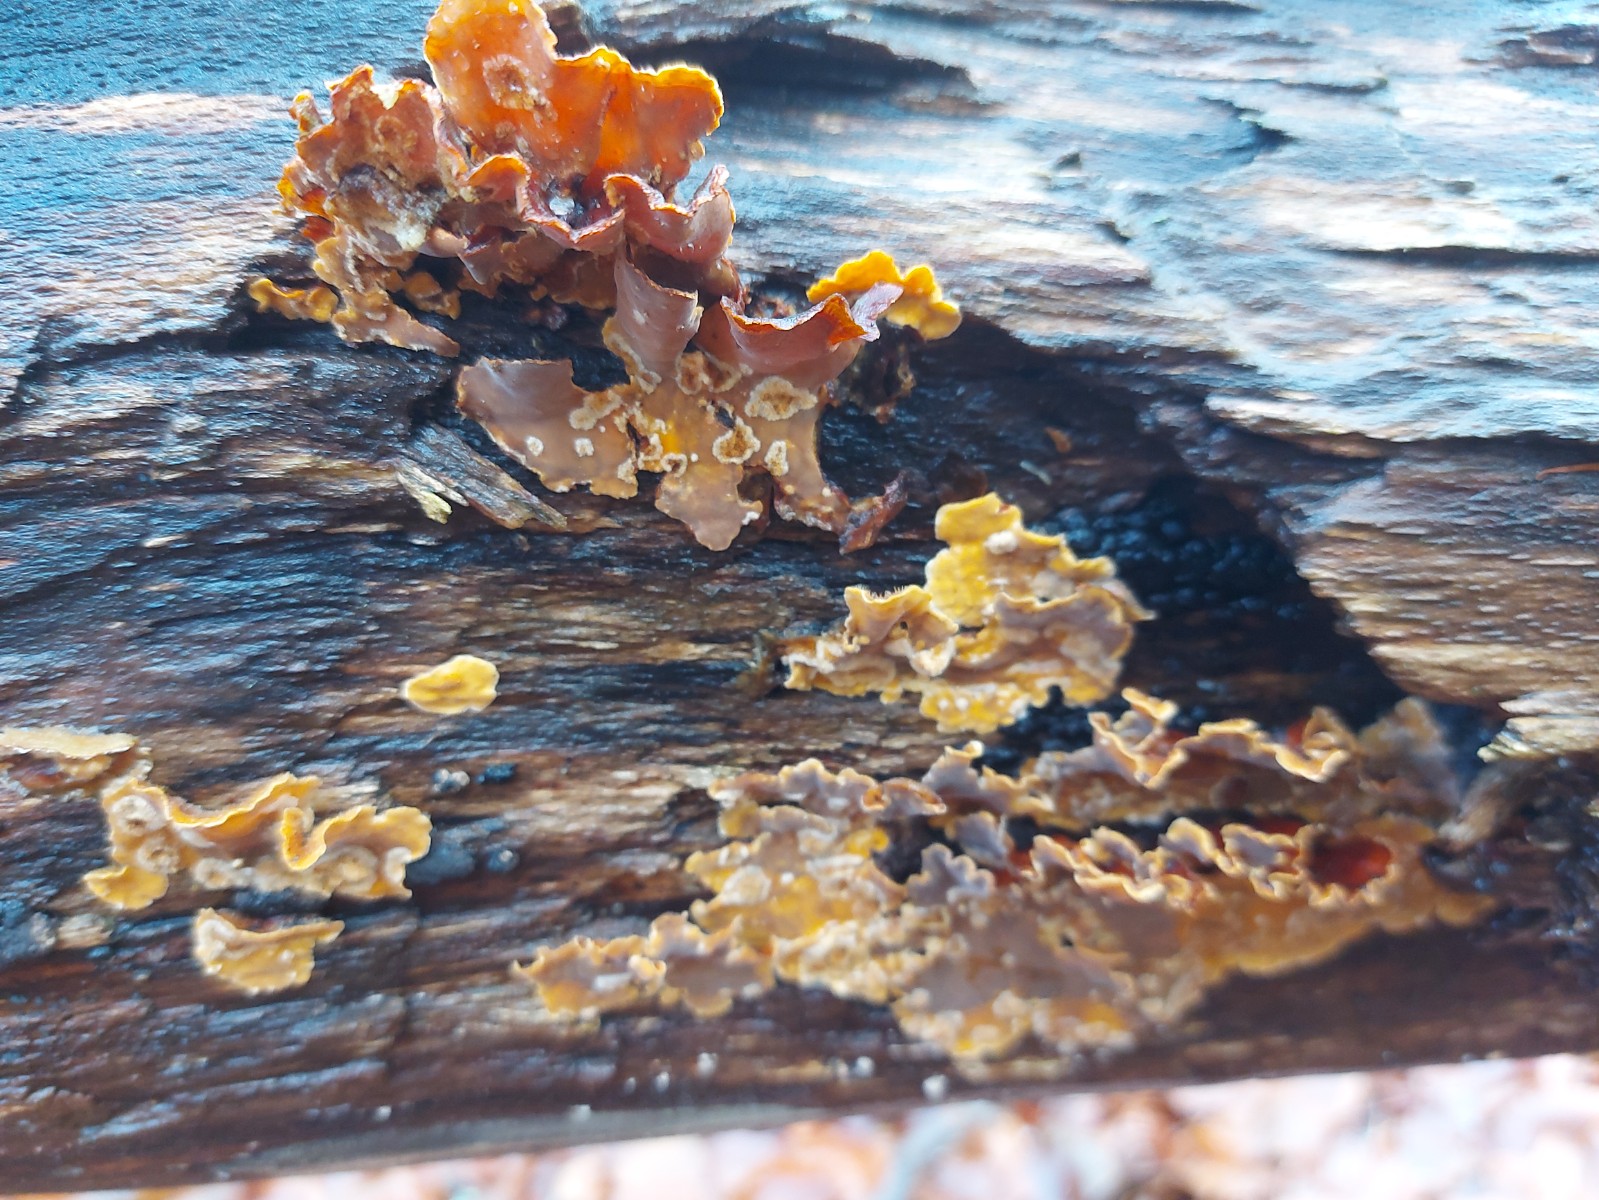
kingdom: Fungi
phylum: Basidiomycota
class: Agaricomycetes
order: Russulales
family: Stereaceae
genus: Stereum
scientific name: Stereum subtomentosum
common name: smuk lædersvamp
